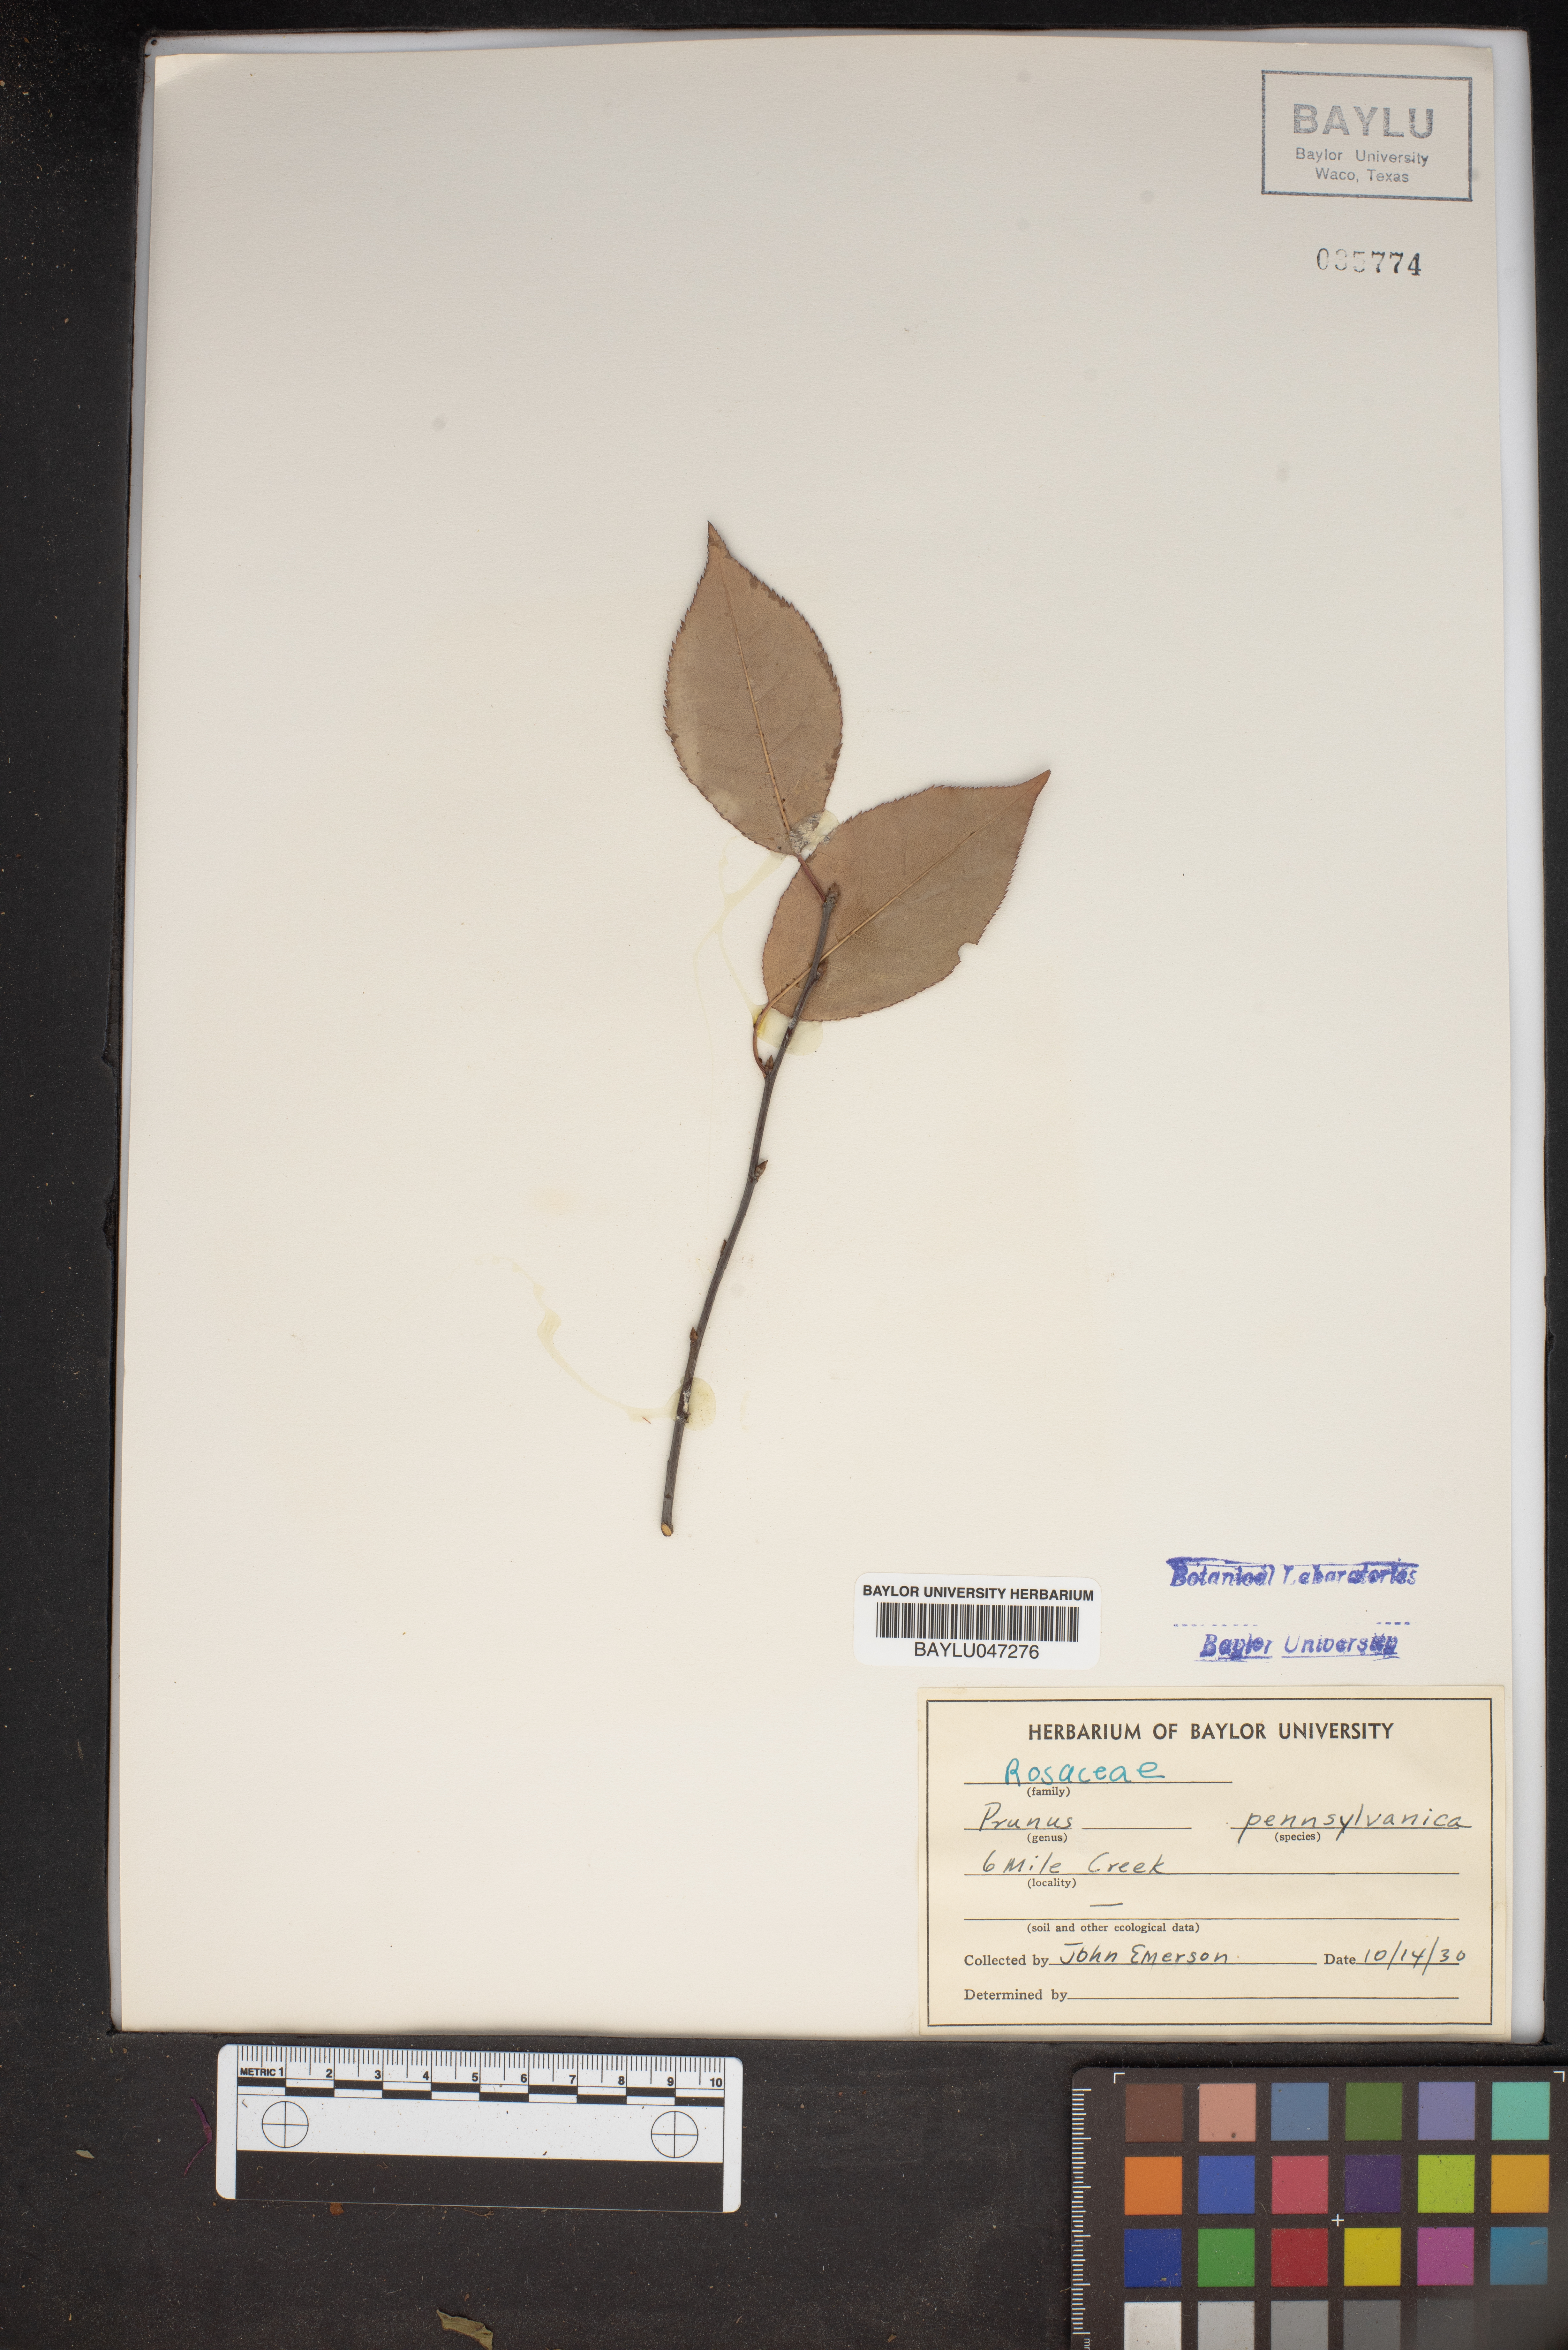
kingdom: Plantae
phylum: Tracheophyta
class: Magnoliopsida
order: Rosales
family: Rosaceae
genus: Prunus
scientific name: Prunus pensylvanica
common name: Pin cherry
